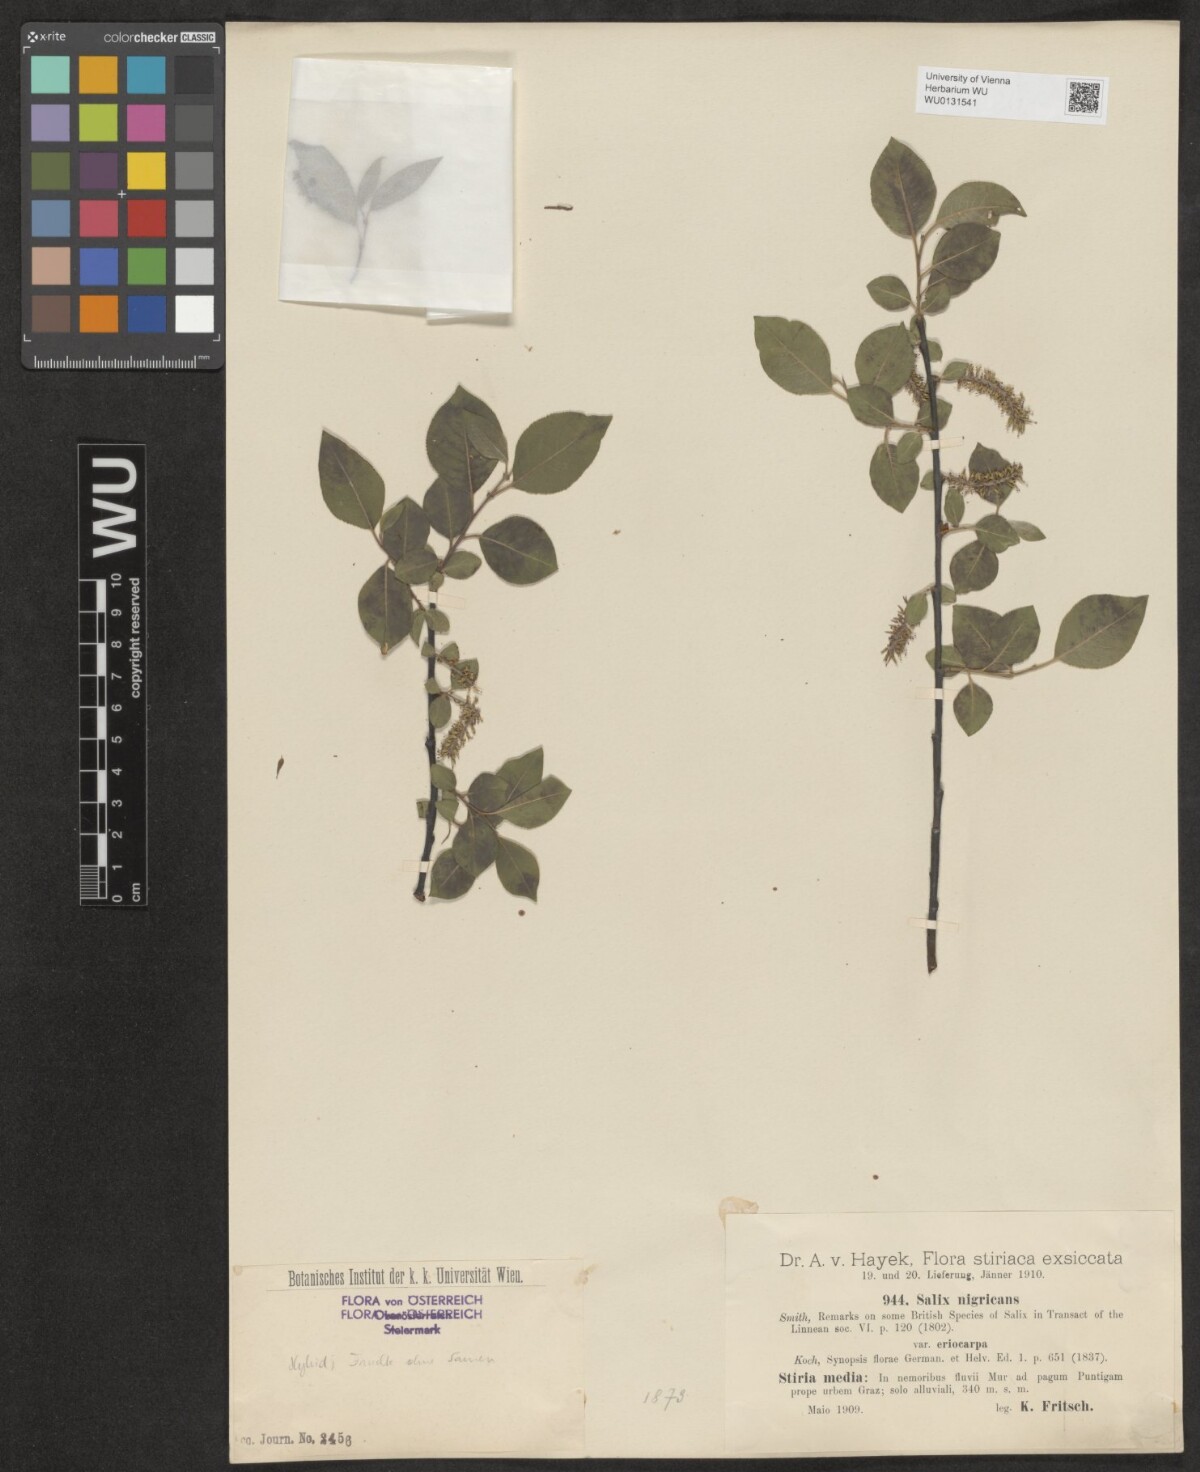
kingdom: Plantae
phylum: Tracheophyta
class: Magnoliopsida
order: Malpighiales
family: Salicaceae
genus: Salix
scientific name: Salix myrsinifolia
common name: Dark-leaved willow
